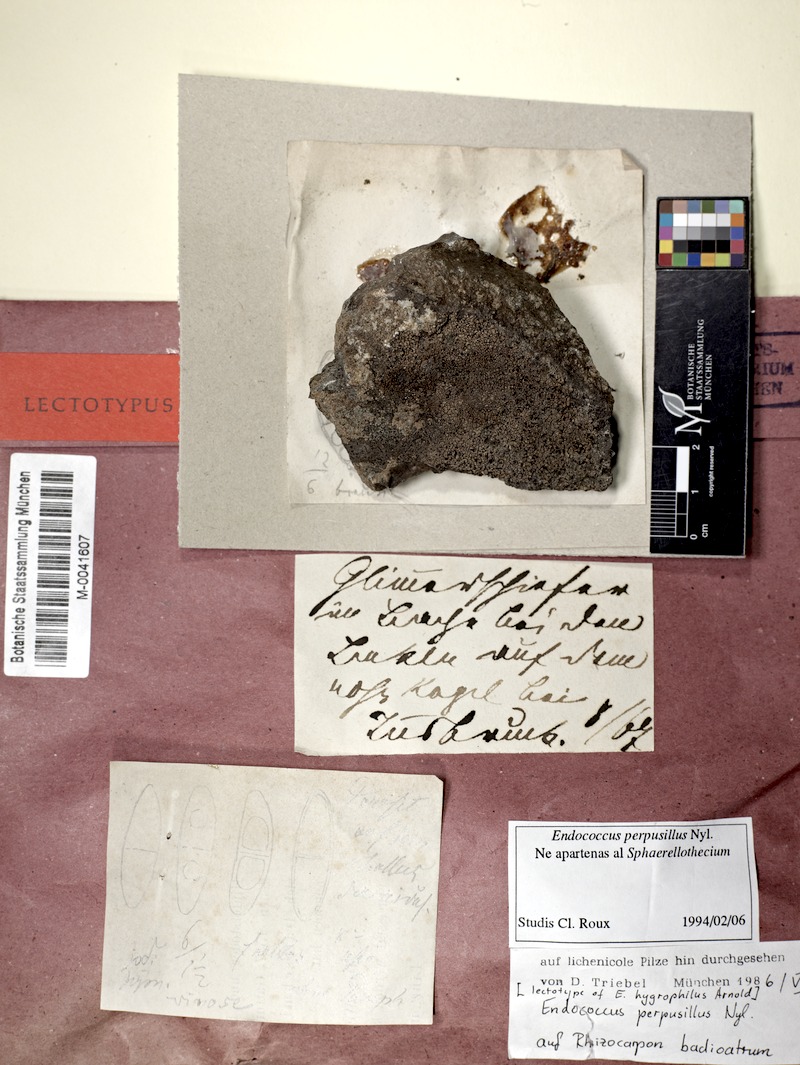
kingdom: Fungi
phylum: Ascomycota
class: Dothideomycetes
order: Dothideales
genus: Endococcus
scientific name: Endococcus rugulosus
